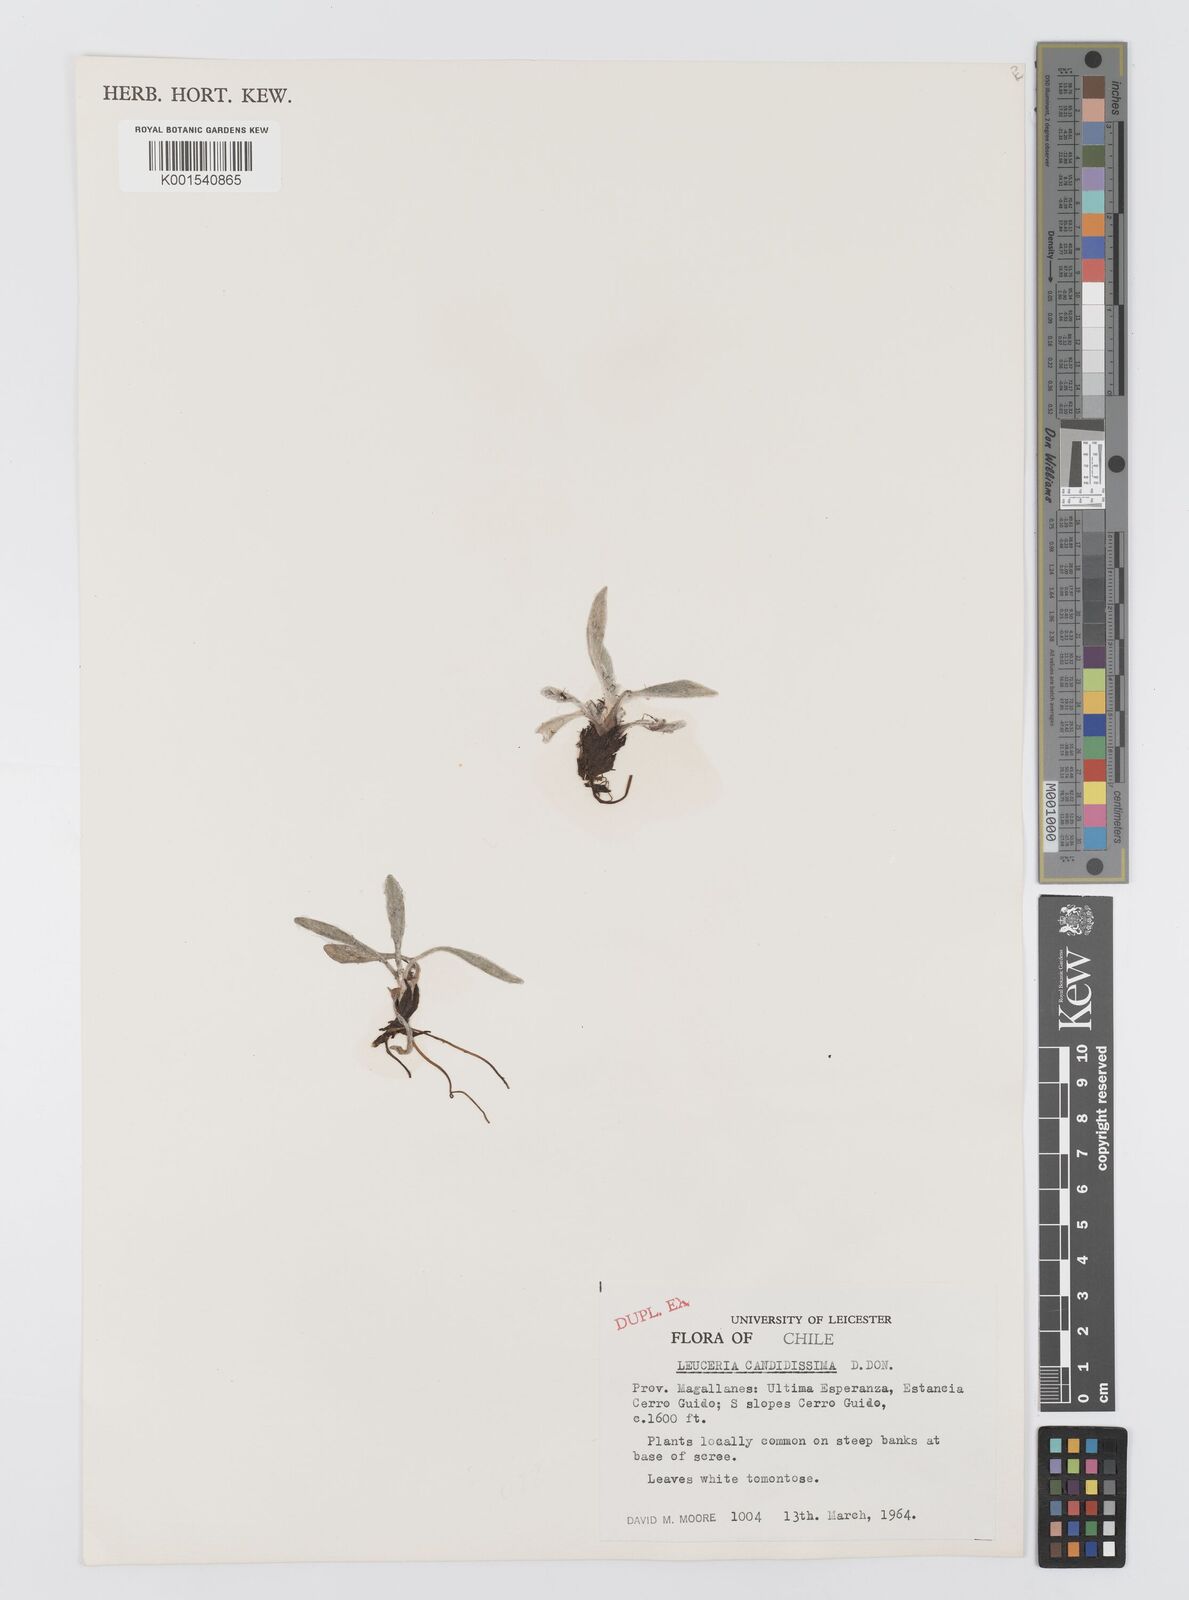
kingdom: Plantae
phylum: Tracheophyta
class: Magnoliopsida
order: Asterales
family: Asteraceae
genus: Leucheria
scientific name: Leucheria candidissima
